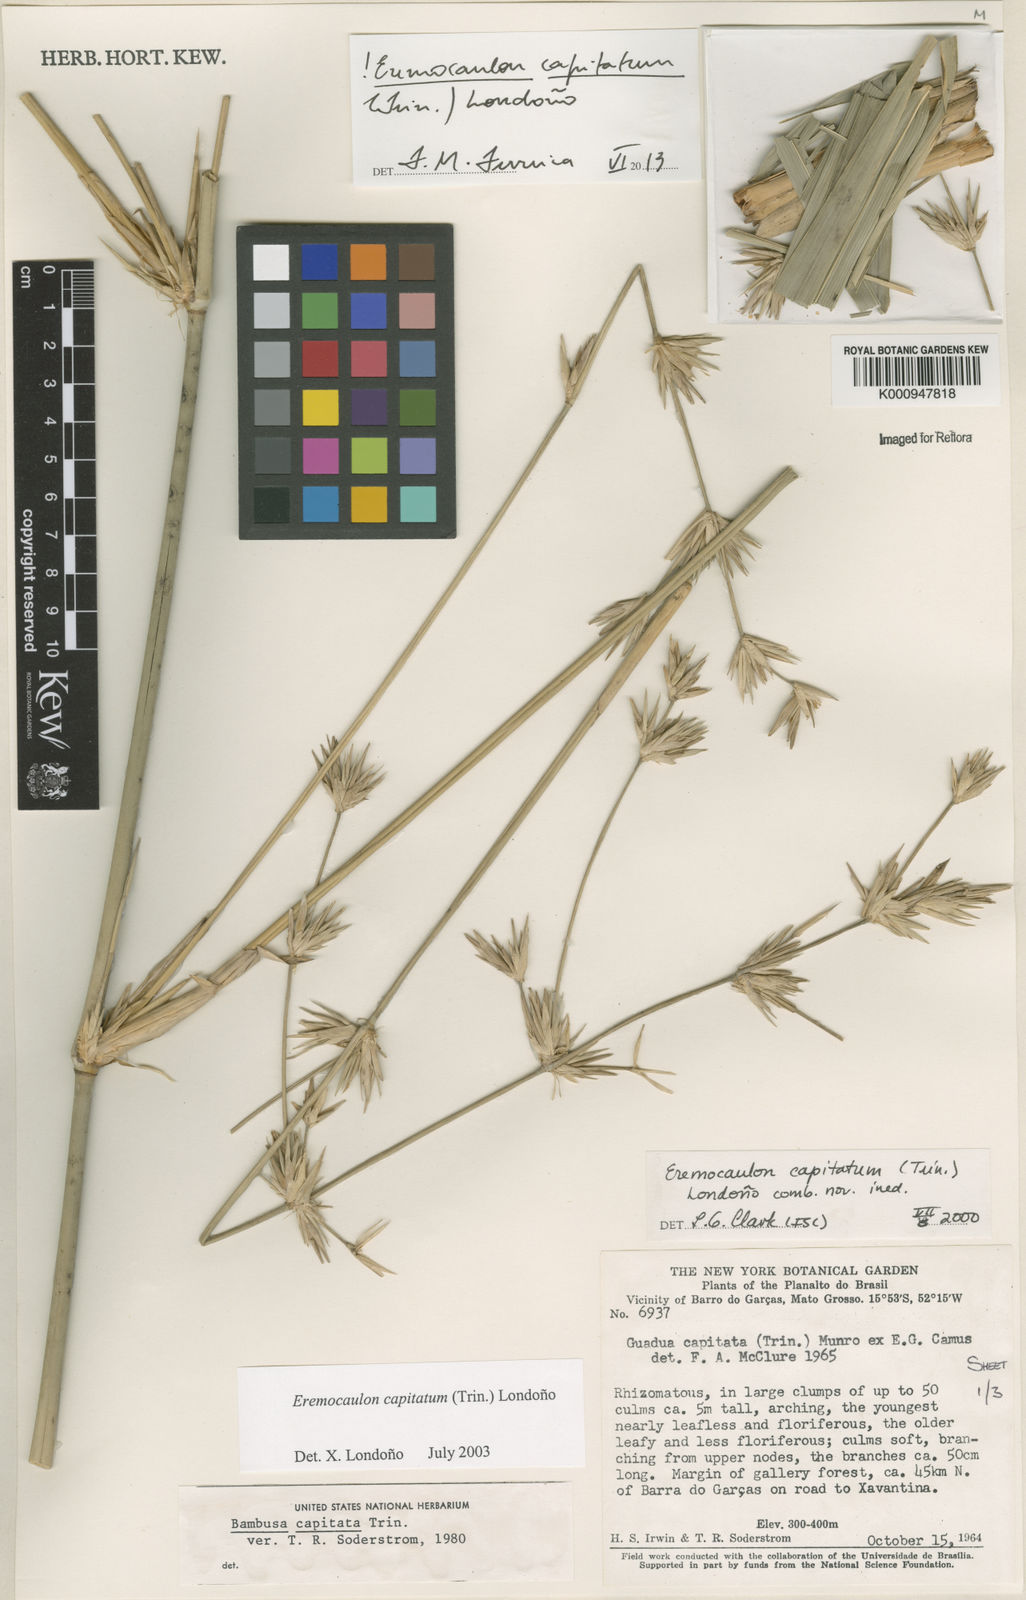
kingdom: Plantae
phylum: Tracheophyta
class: Liliopsida
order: Poales
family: Poaceae
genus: Eremocaulon
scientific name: Eremocaulon
